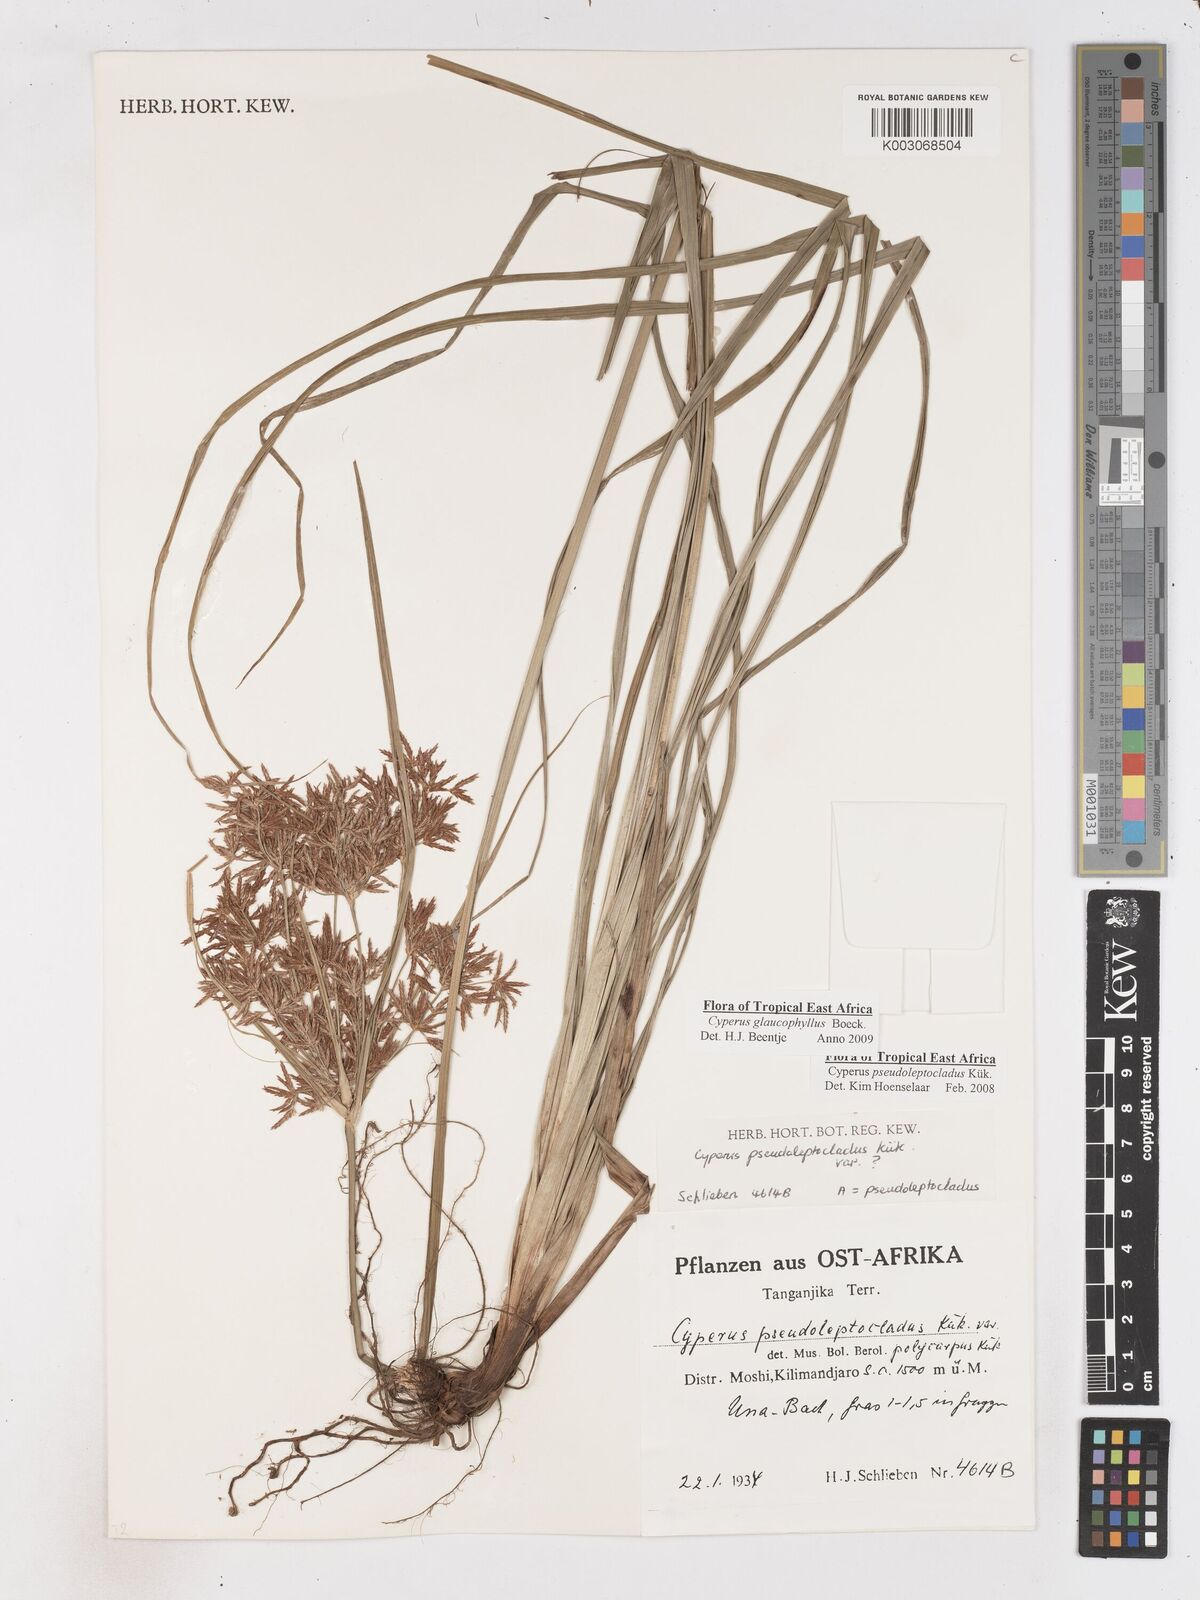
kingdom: Plantae
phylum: Tracheophyta
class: Liliopsida
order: Poales
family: Cyperaceae
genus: Cyperus
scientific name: Cyperus glaucophyllus
